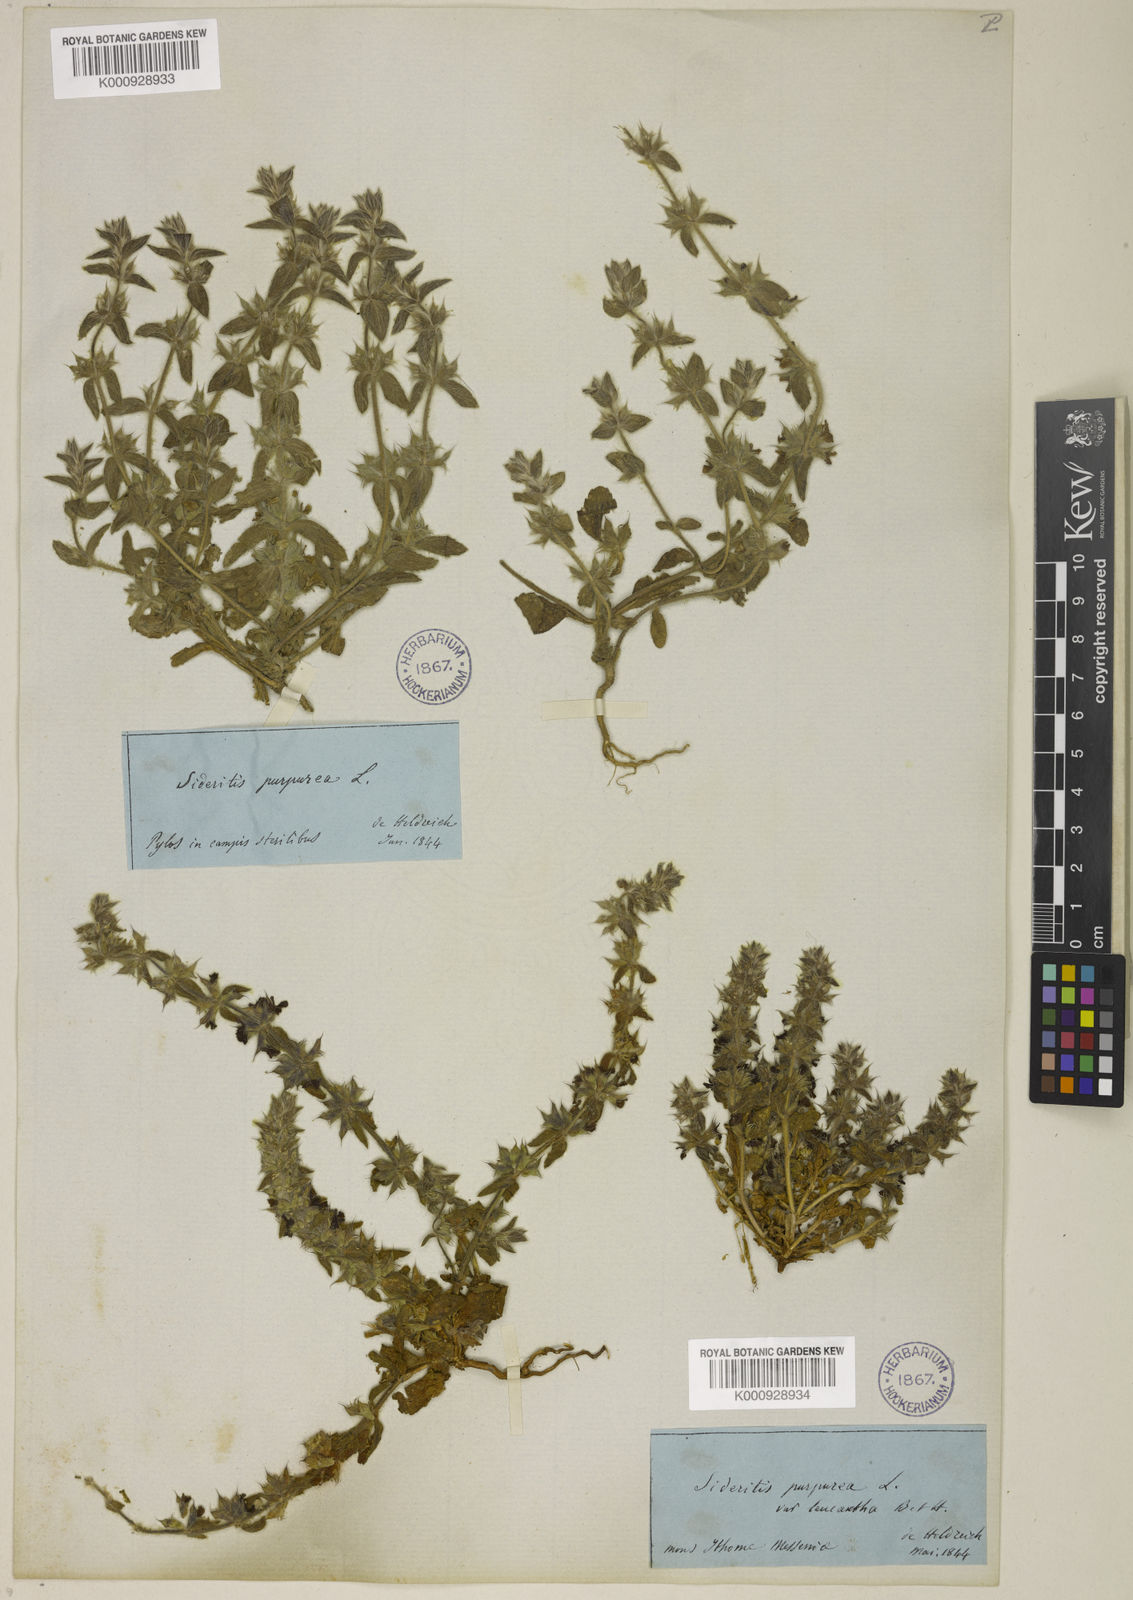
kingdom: Plantae
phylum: Tracheophyta
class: Magnoliopsida
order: Lamiales
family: Lamiaceae
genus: Sideritis
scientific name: Sideritis romana
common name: Simplebeak ironwort
